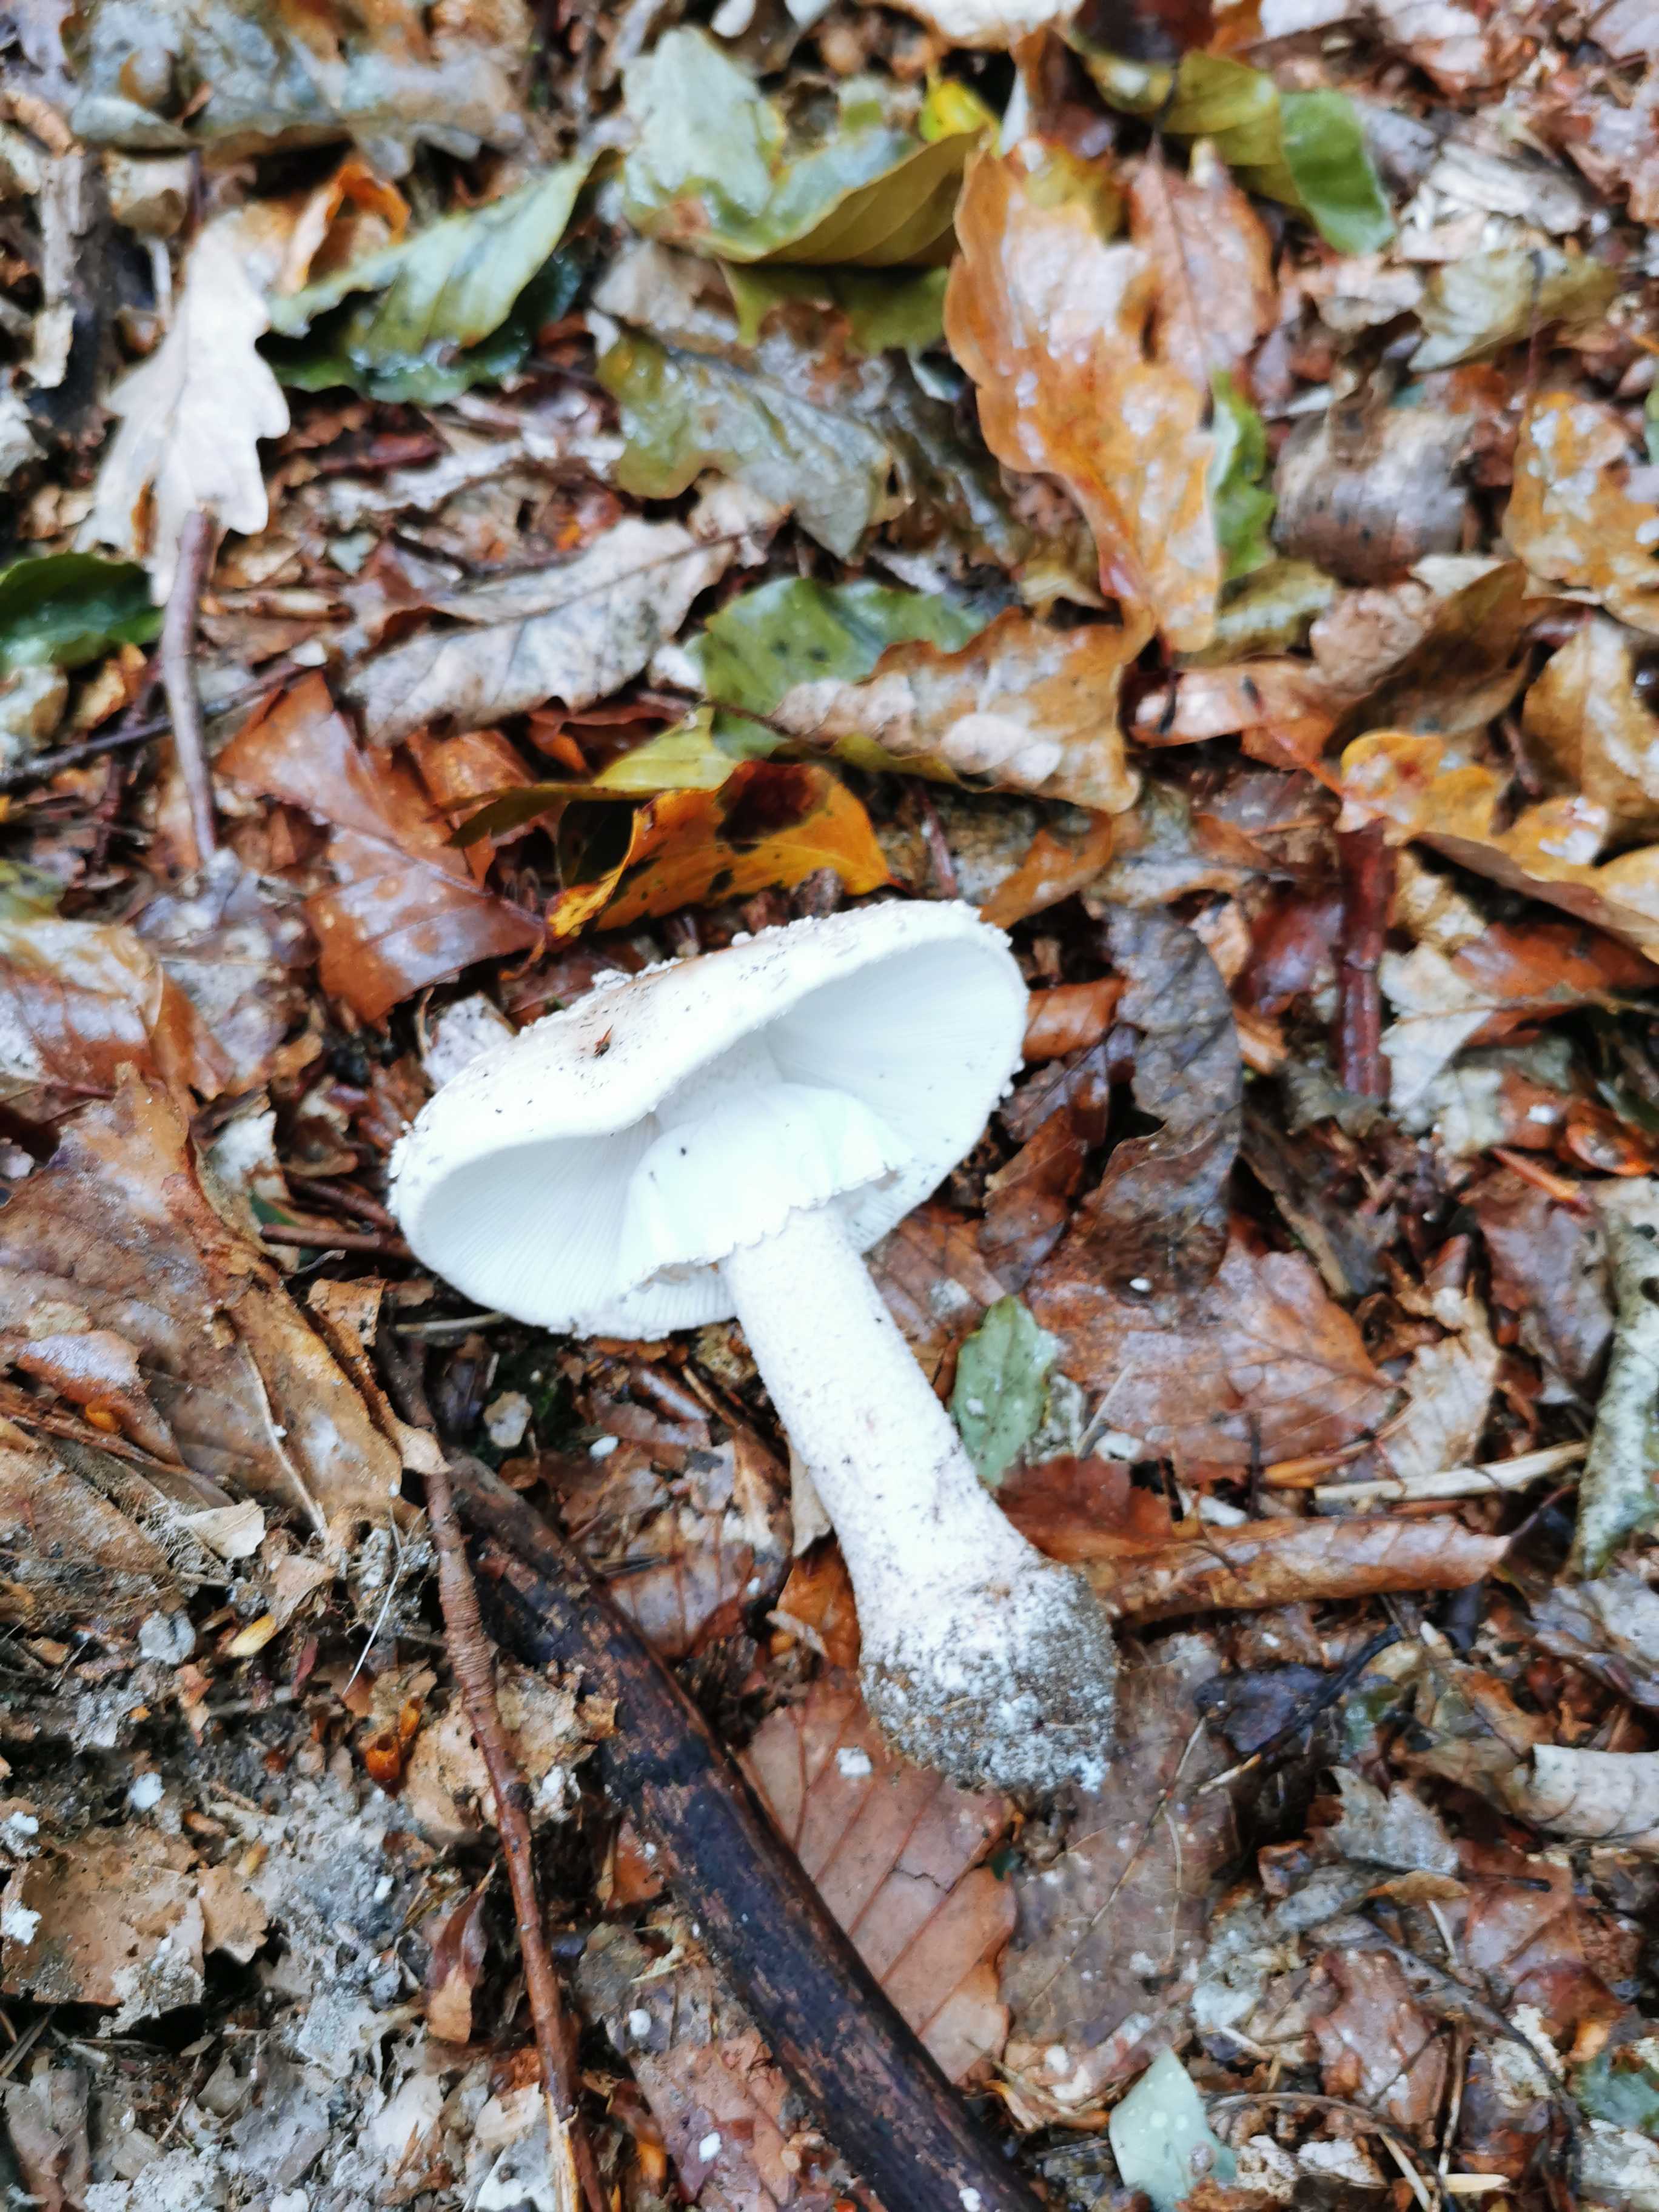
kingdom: Fungi
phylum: Basidiomycota
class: Agaricomycetes
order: Agaricales
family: Amanitaceae
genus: Amanita
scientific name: Amanita
